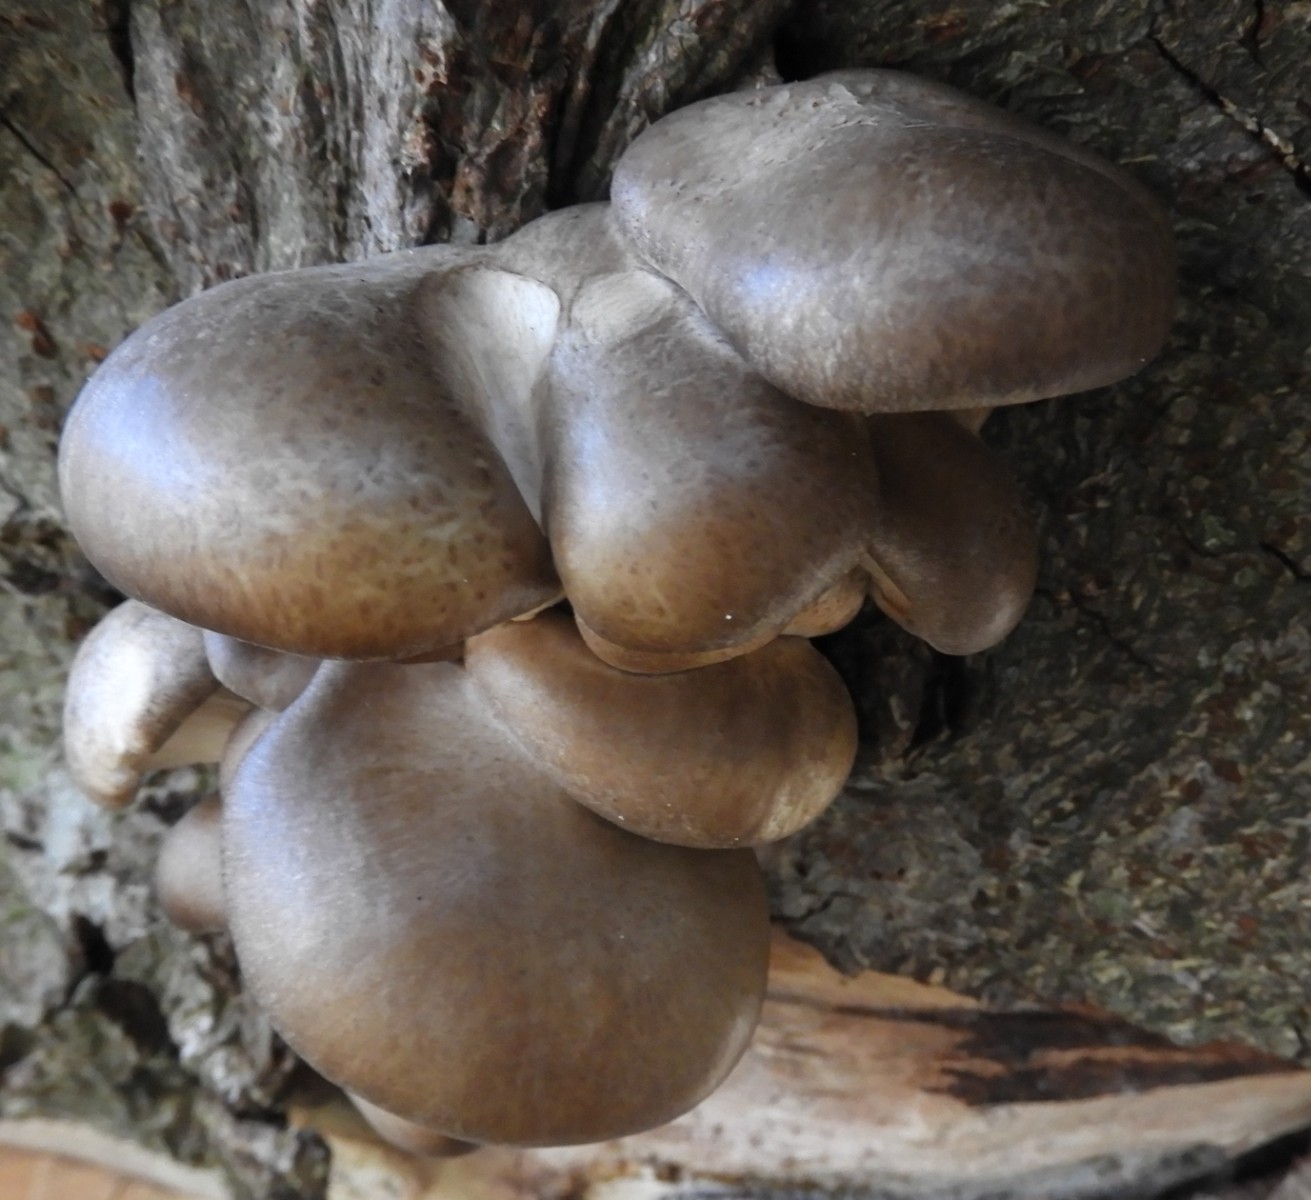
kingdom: Fungi
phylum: Basidiomycota
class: Agaricomycetes
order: Agaricales
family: Pleurotaceae
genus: Pleurotus
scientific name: Pleurotus ostreatus
